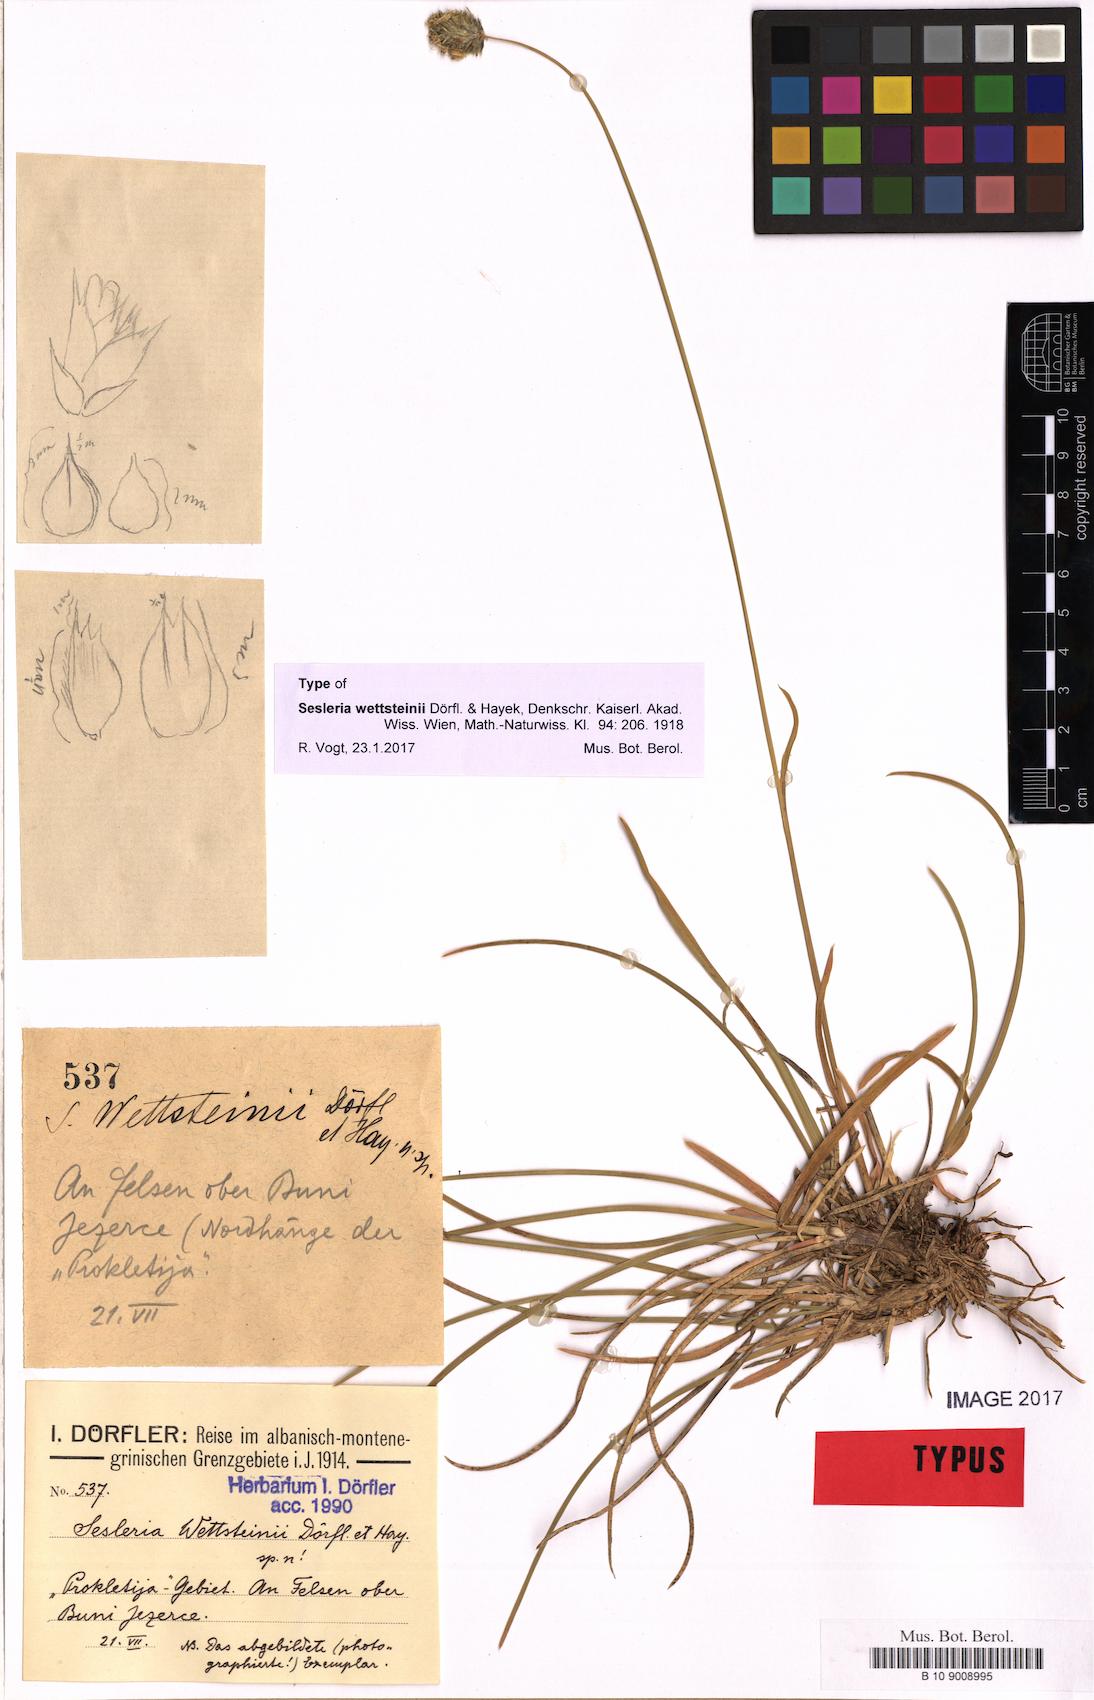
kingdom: Plantae
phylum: Tracheophyta
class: Liliopsida
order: Poales
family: Poaceae
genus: Sesleria
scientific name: Sesleria wettsteinii
